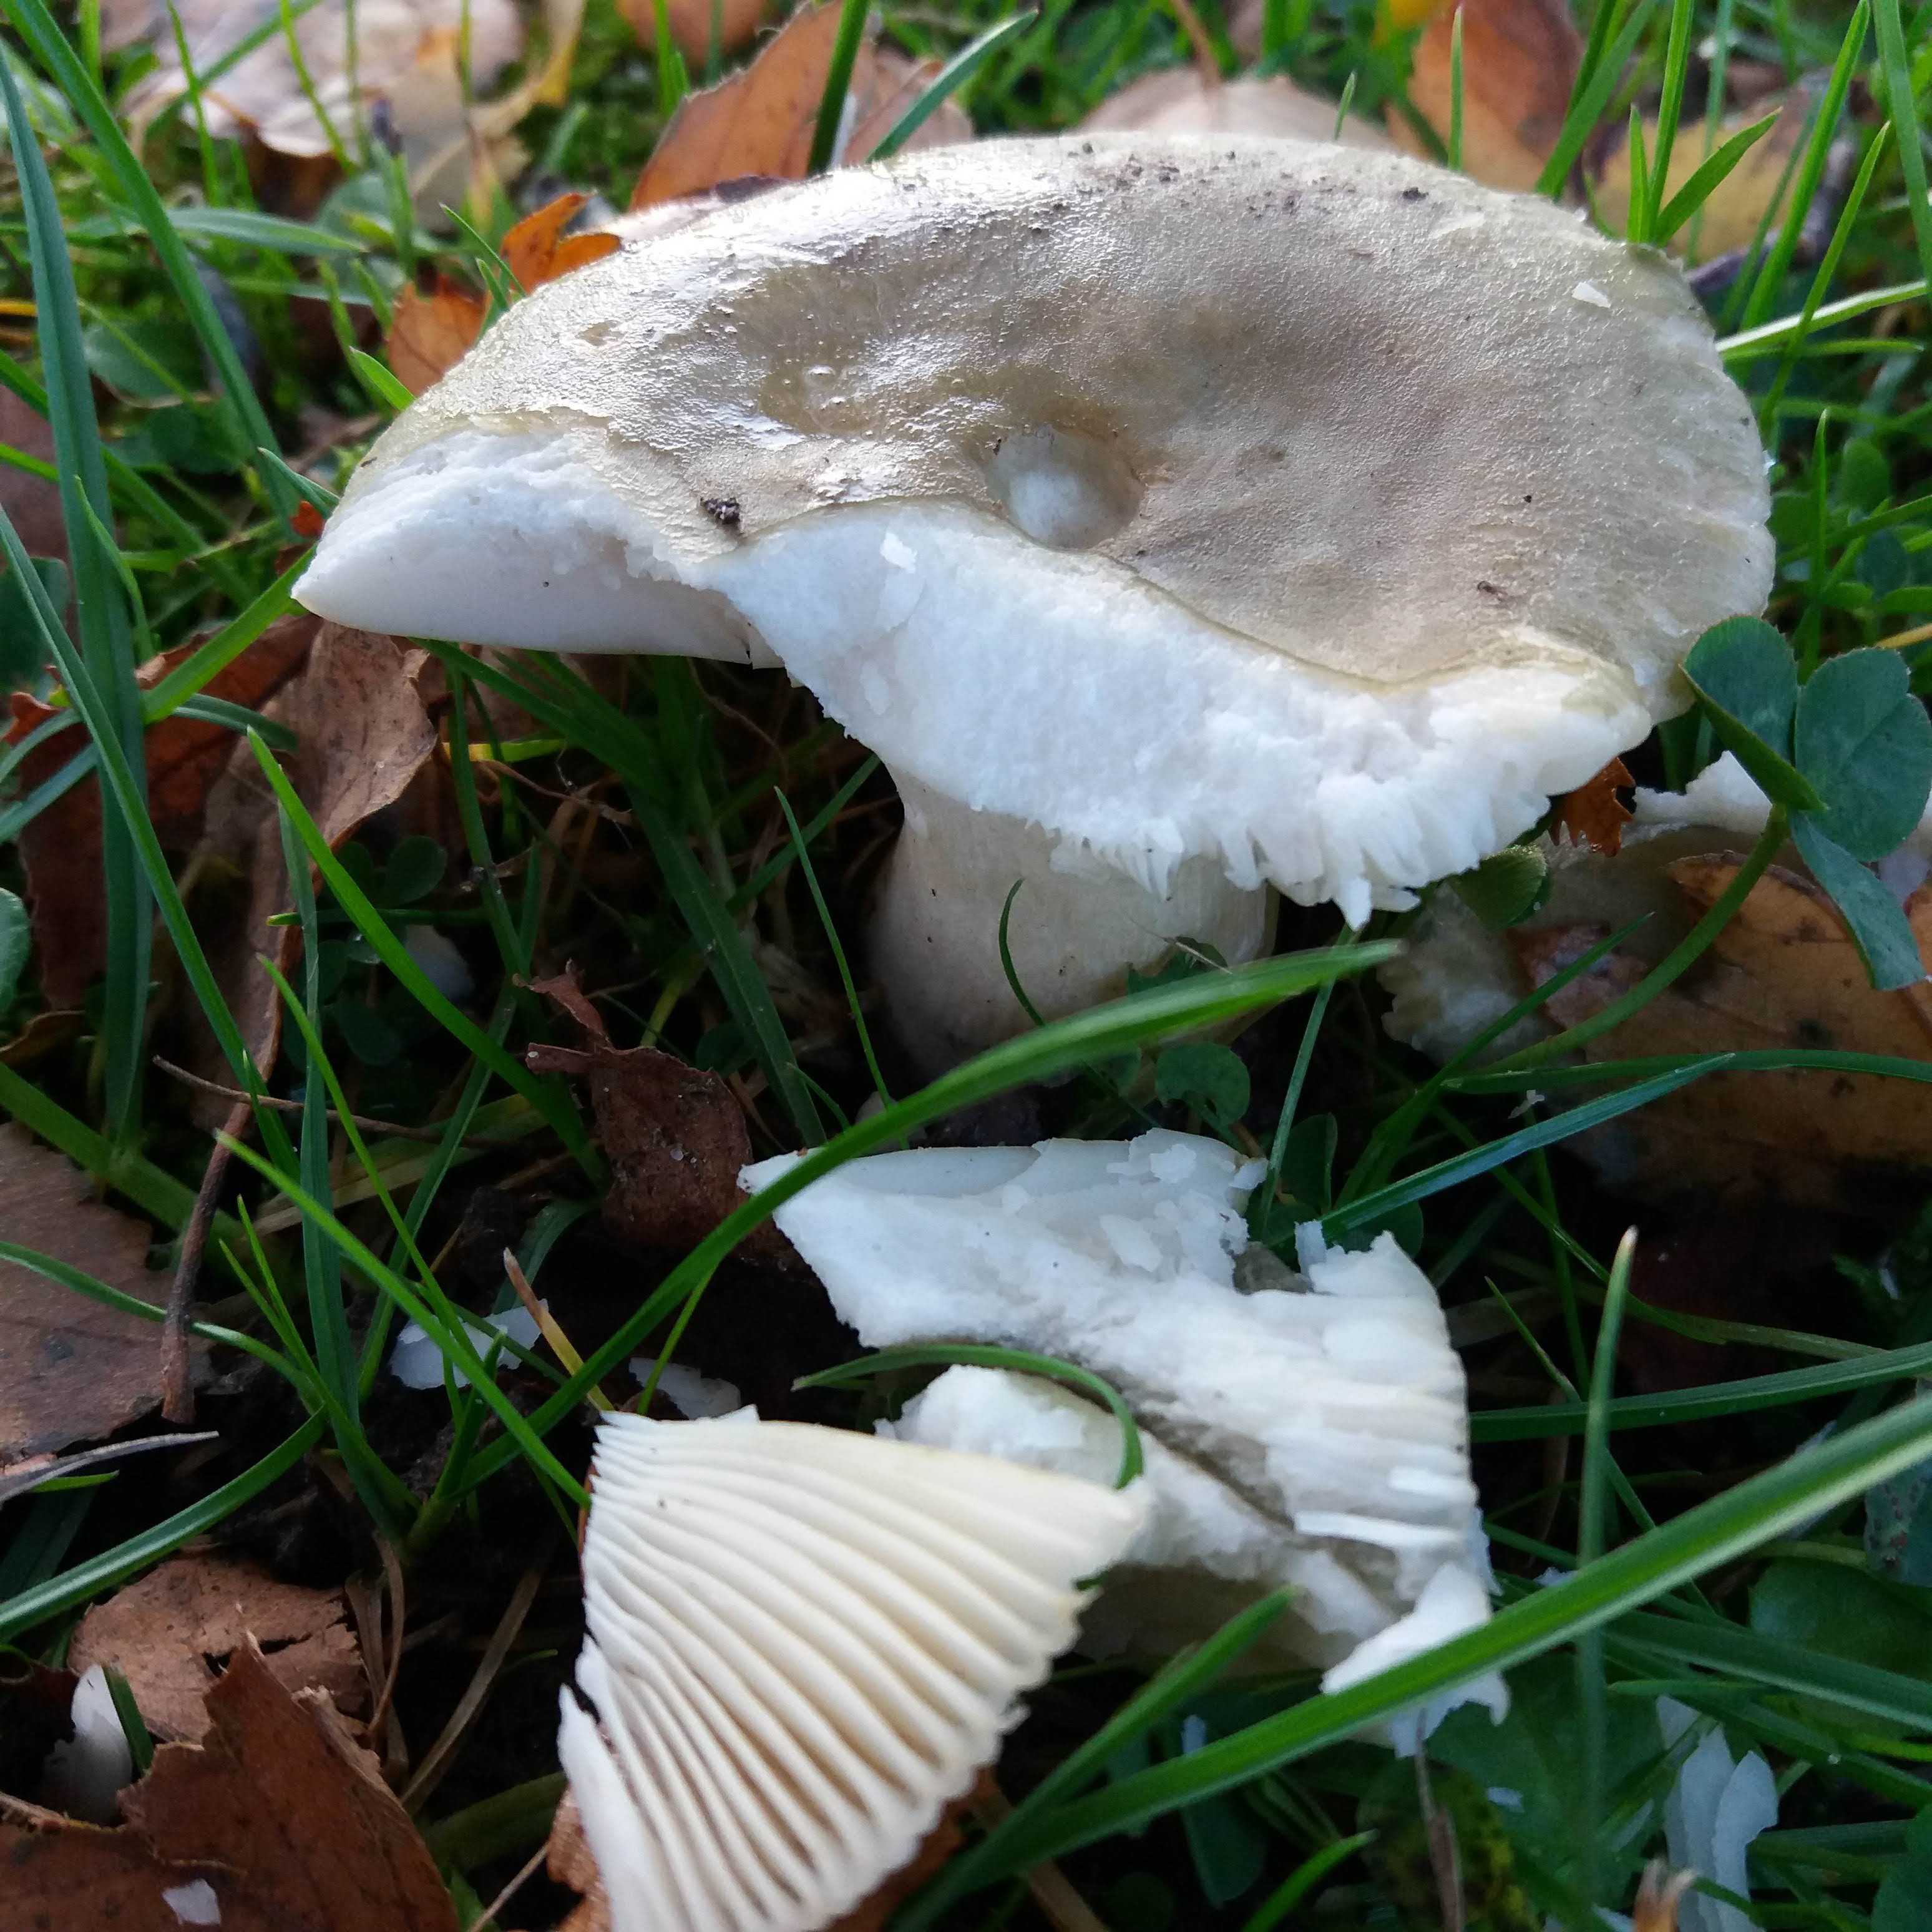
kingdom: Fungi
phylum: Basidiomycota
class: Agaricomycetes
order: Russulales
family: Russulaceae
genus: Russula
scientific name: Russula
